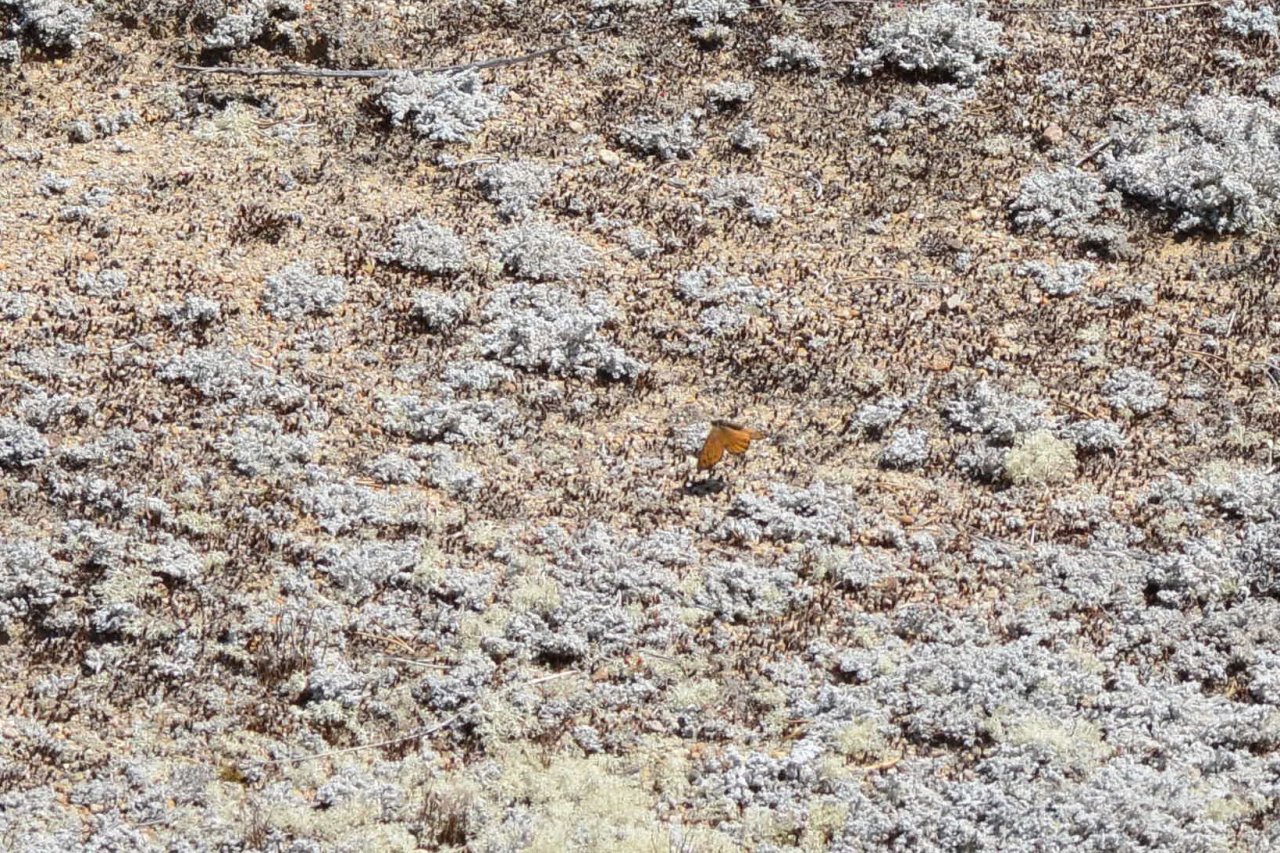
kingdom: Animalia
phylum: Arthropoda
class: Insecta
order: Lepidoptera
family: Nymphalidae
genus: Oeneis
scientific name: Oeneis chryxus
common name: Chryxus Arctic
